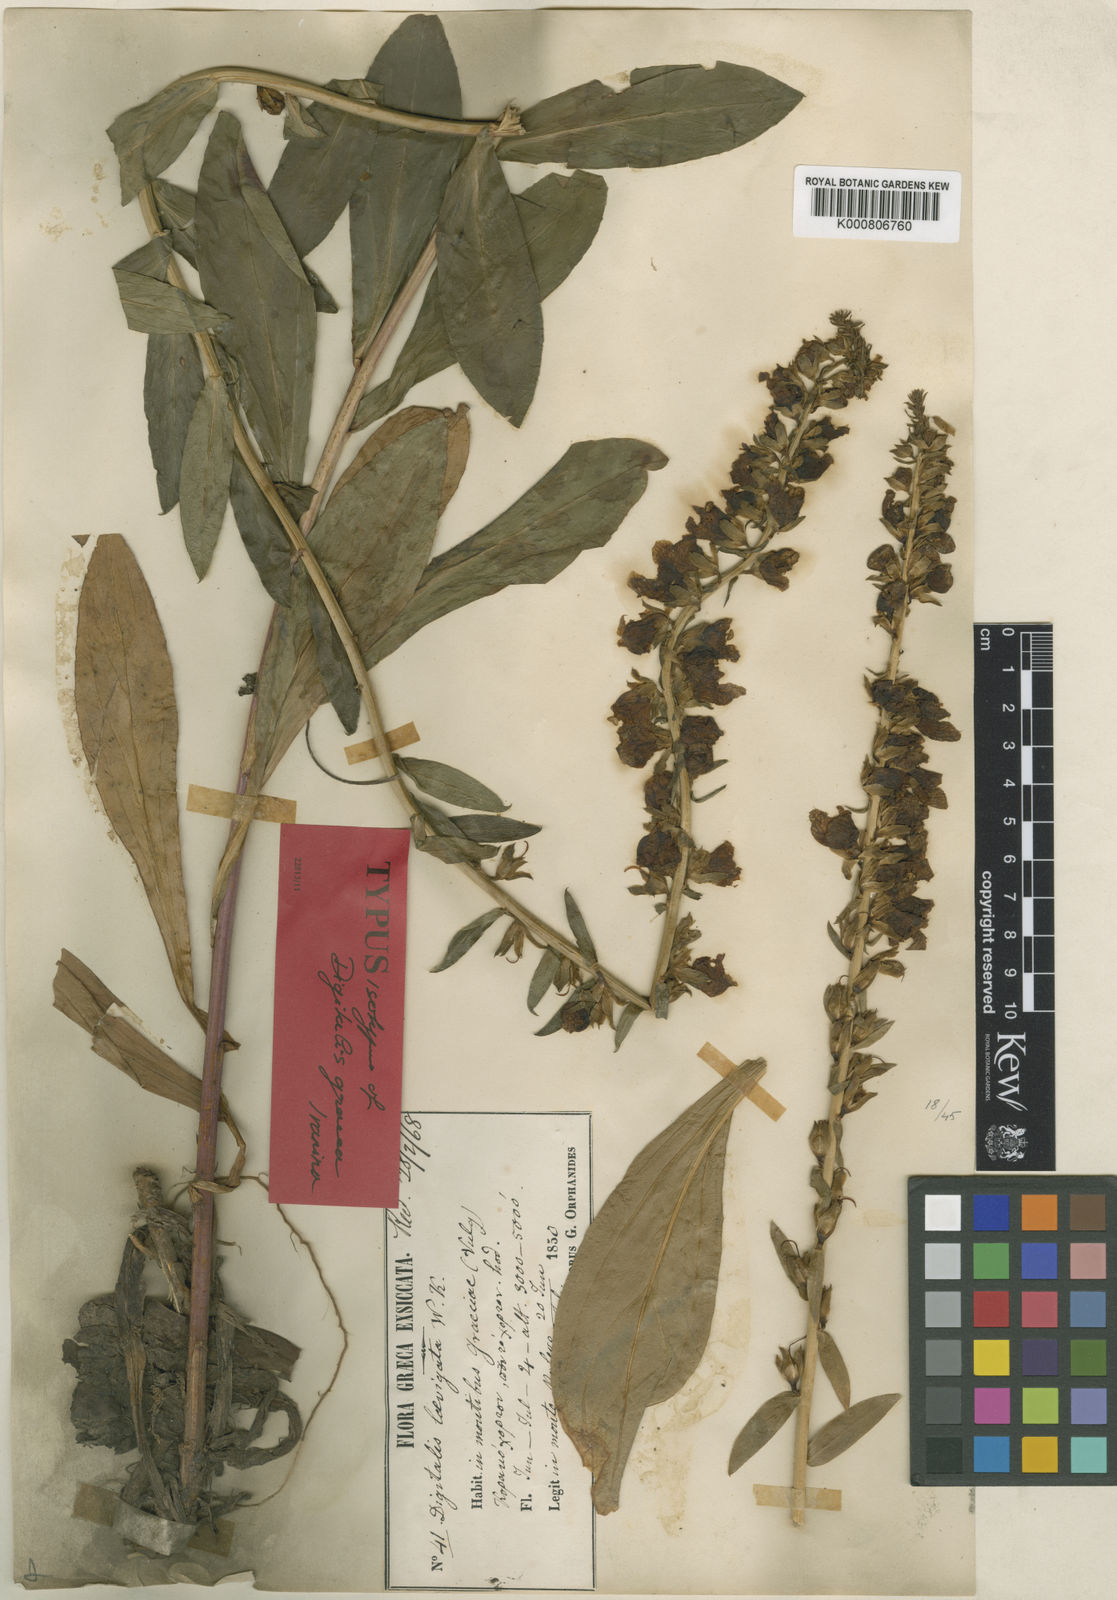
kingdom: Plantae
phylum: Tracheophyta
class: Magnoliopsida
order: Lamiales
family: Plantaginaceae
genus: Digitalis
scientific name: Digitalis laevigata
